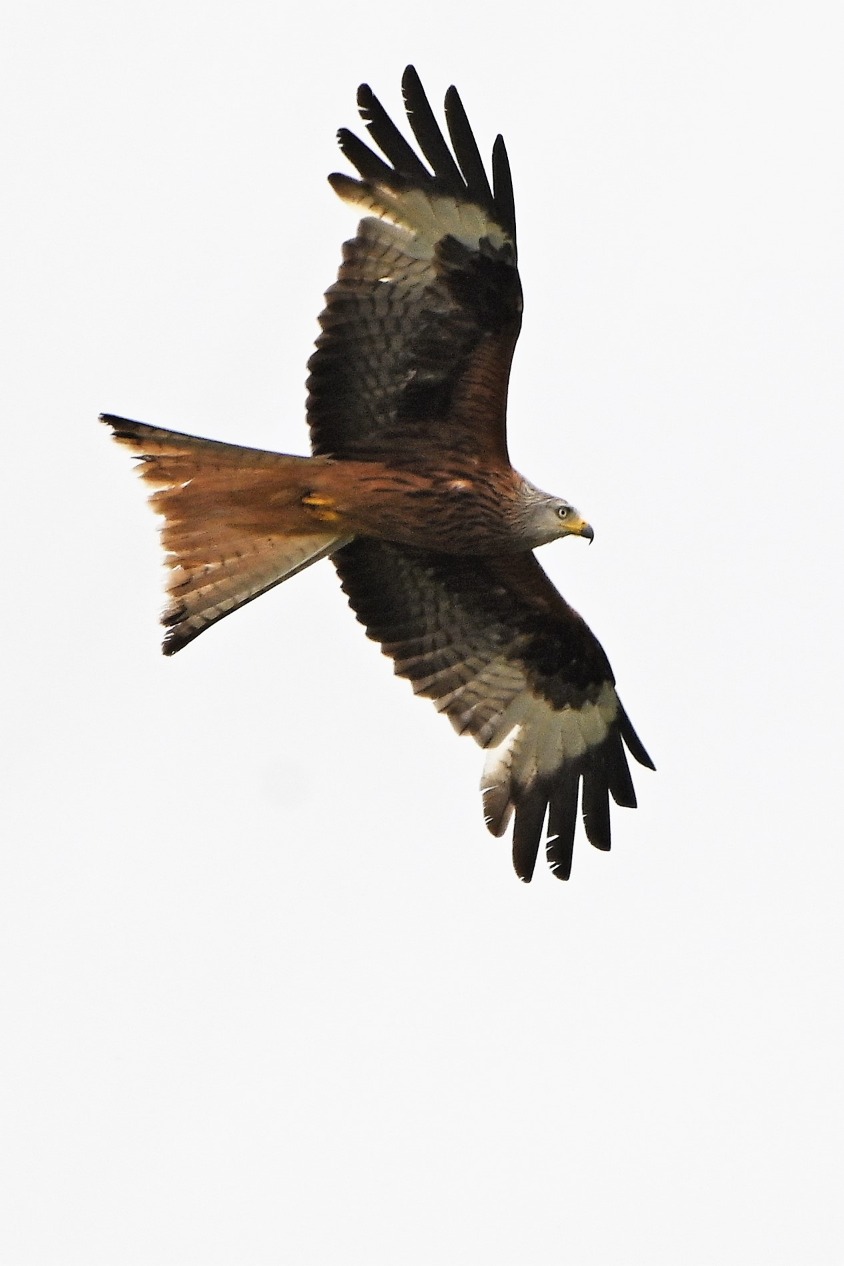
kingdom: Animalia
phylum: Chordata
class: Aves
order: Accipitriformes
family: Accipitridae
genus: Milvus
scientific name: Milvus milvus
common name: Rød glente
